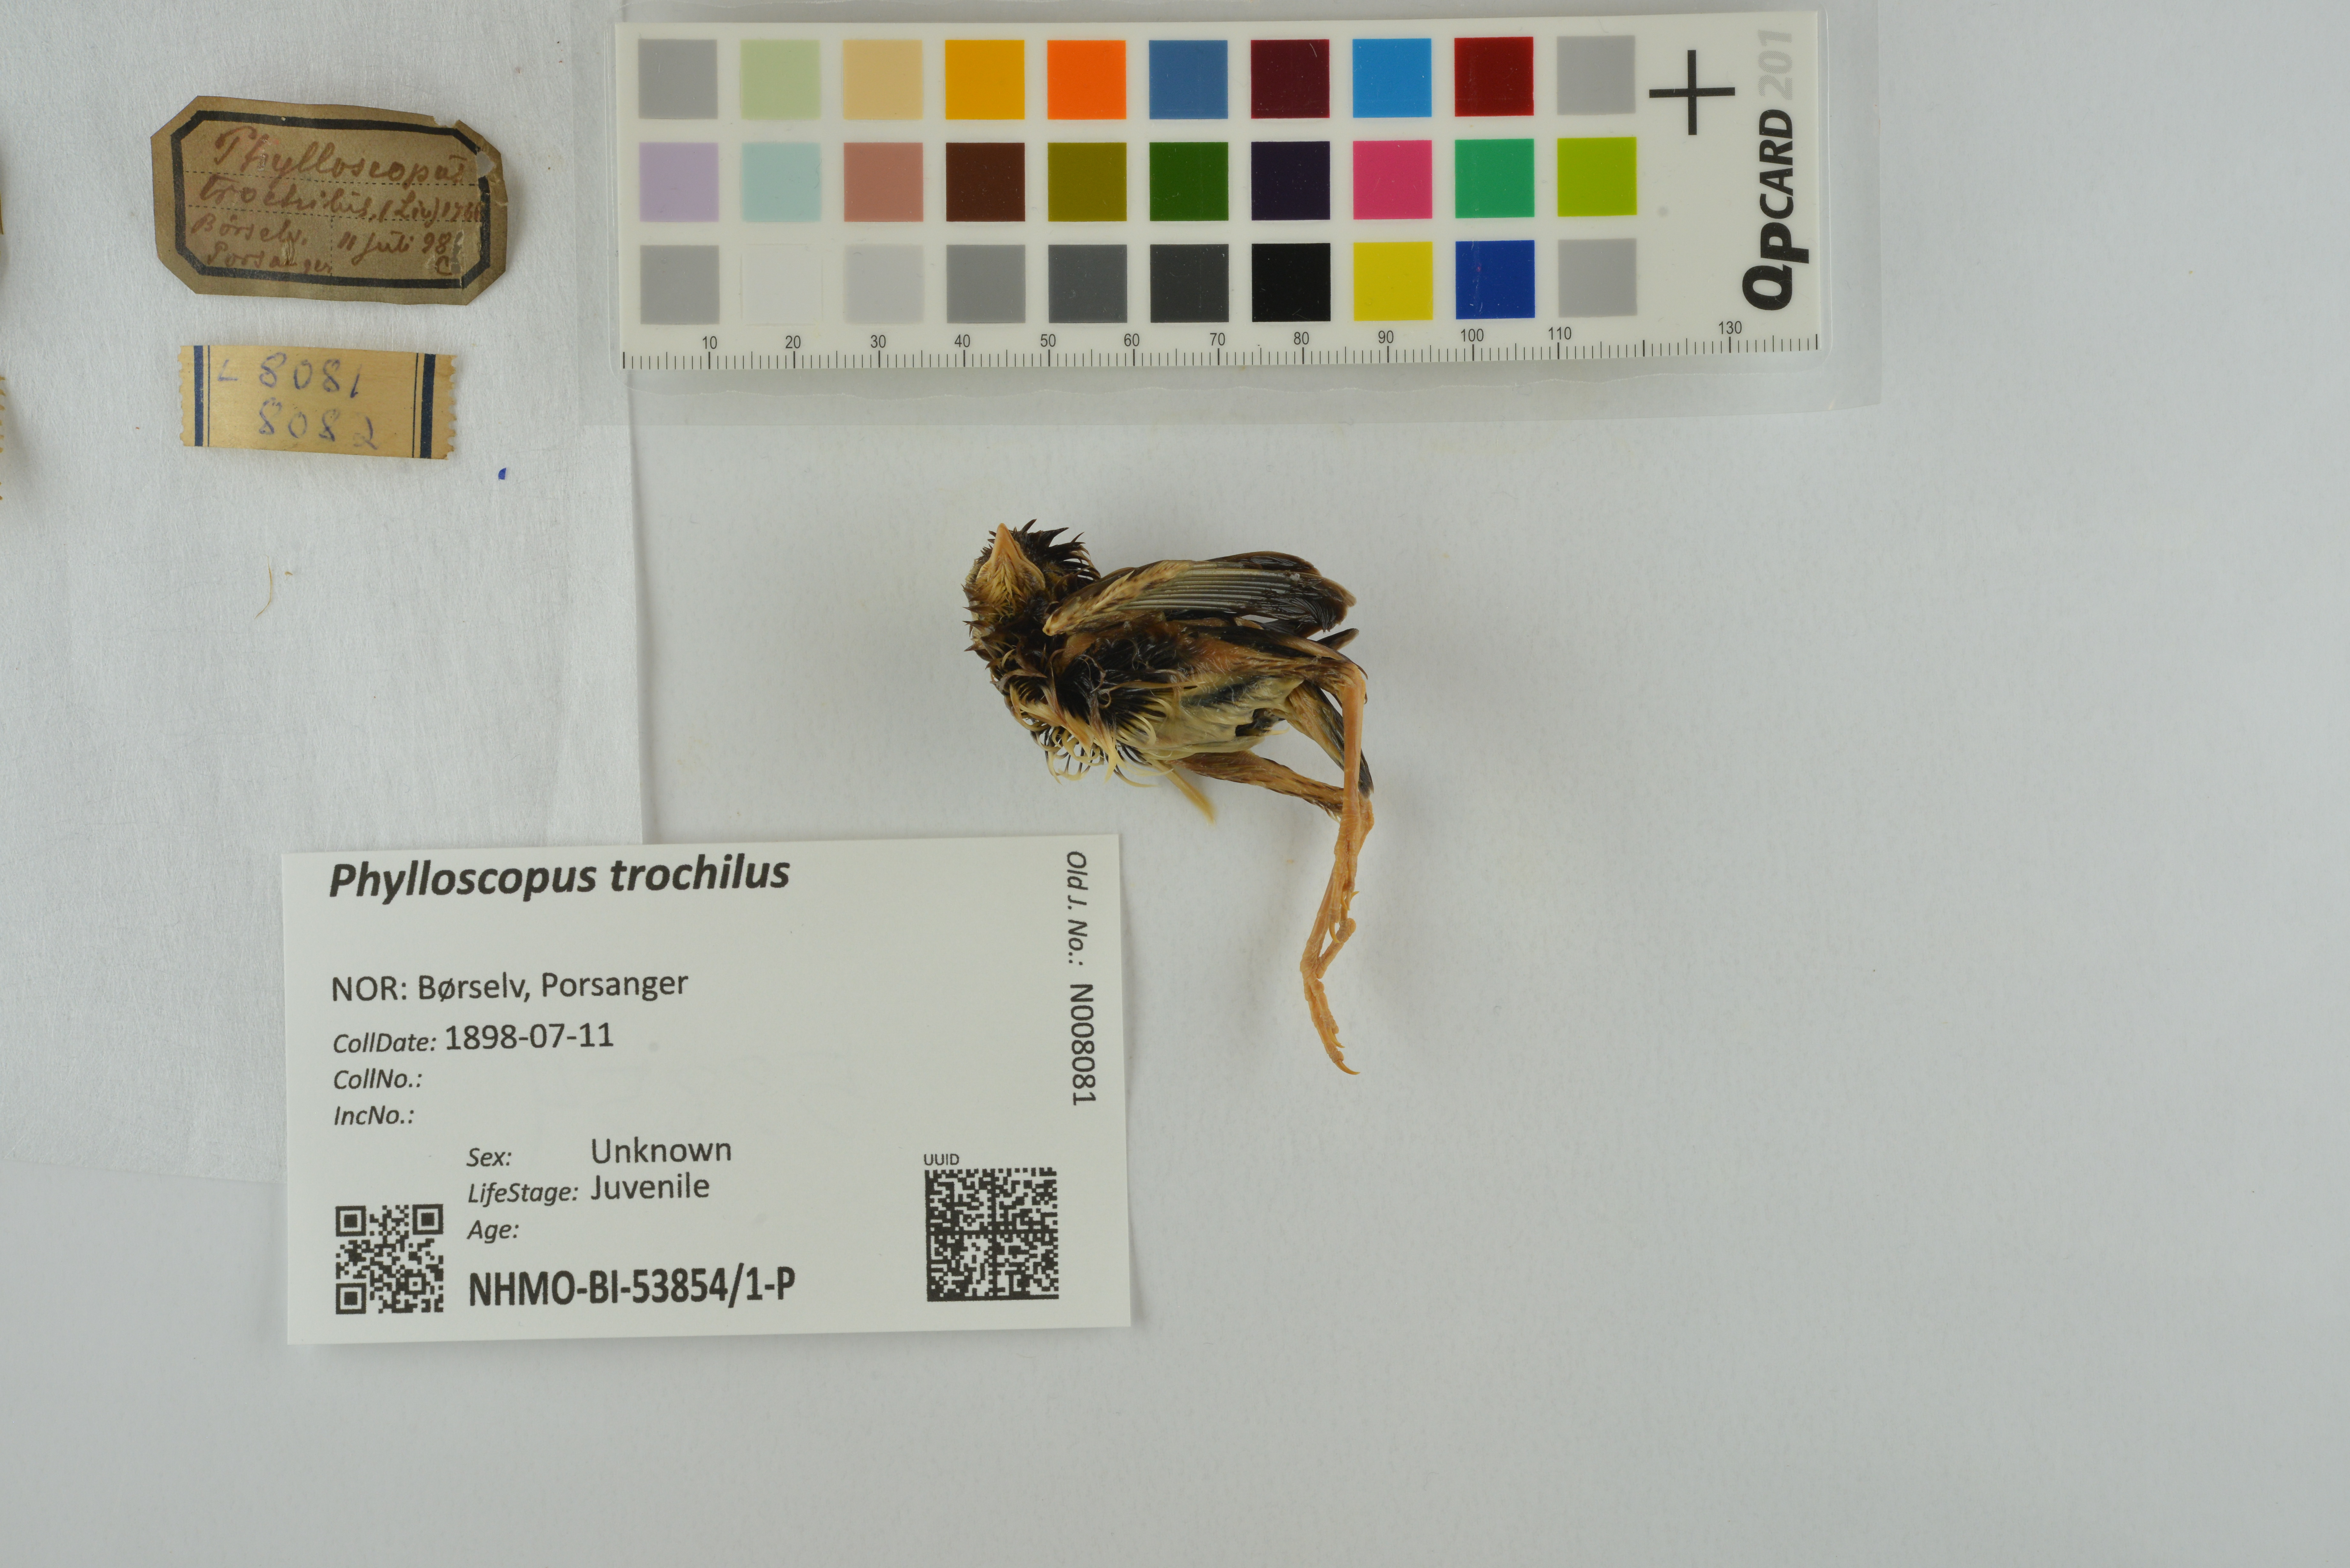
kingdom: Animalia
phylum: Chordata
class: Aves
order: Passeriformes
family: Phylloscopidae
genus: Phylloscopus
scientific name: Phylloscopus trochilus
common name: Willow warbler
